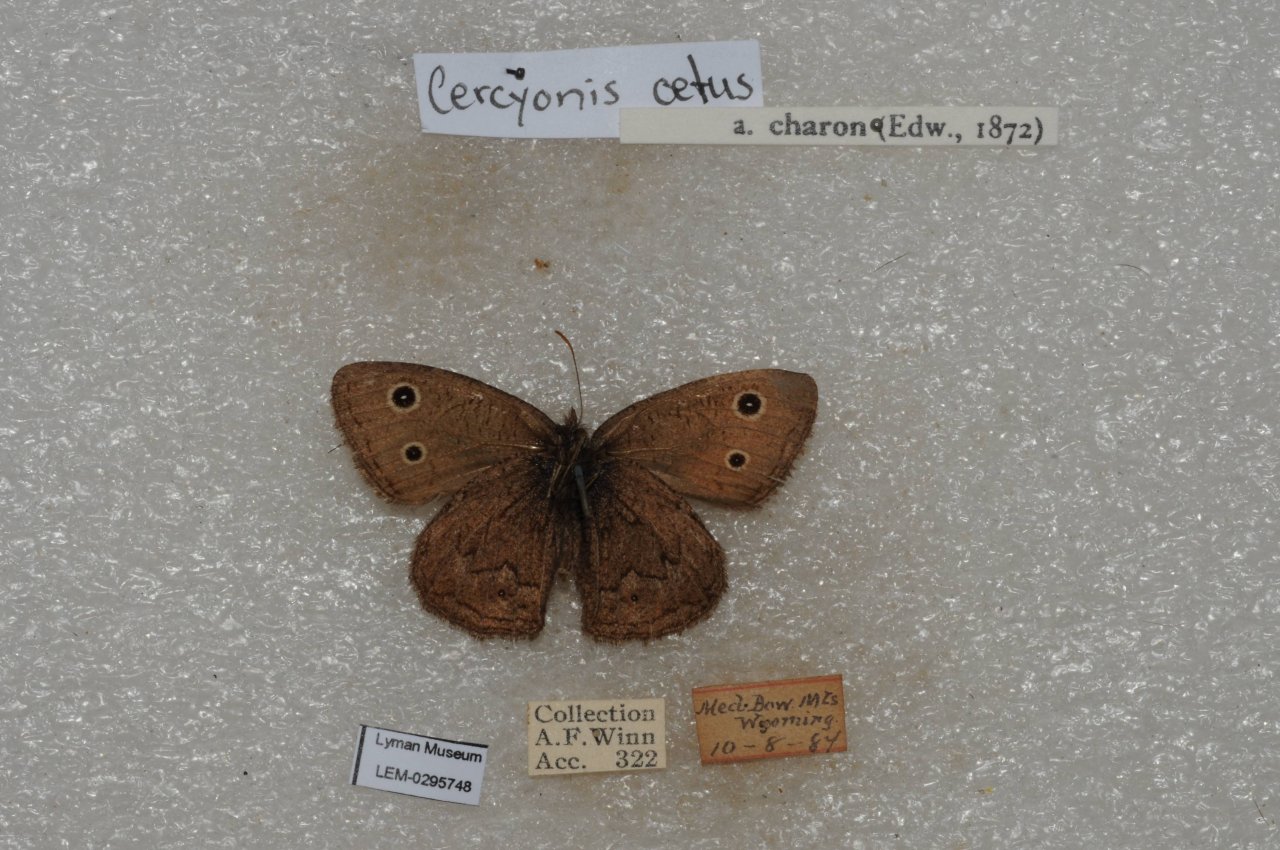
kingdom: Animalia
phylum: Arthropoda
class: Insecta
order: Lepidoptera
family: Nymphalidae
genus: Cercyonis
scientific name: Cercyonis oetus
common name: Small Wood-Nymph
